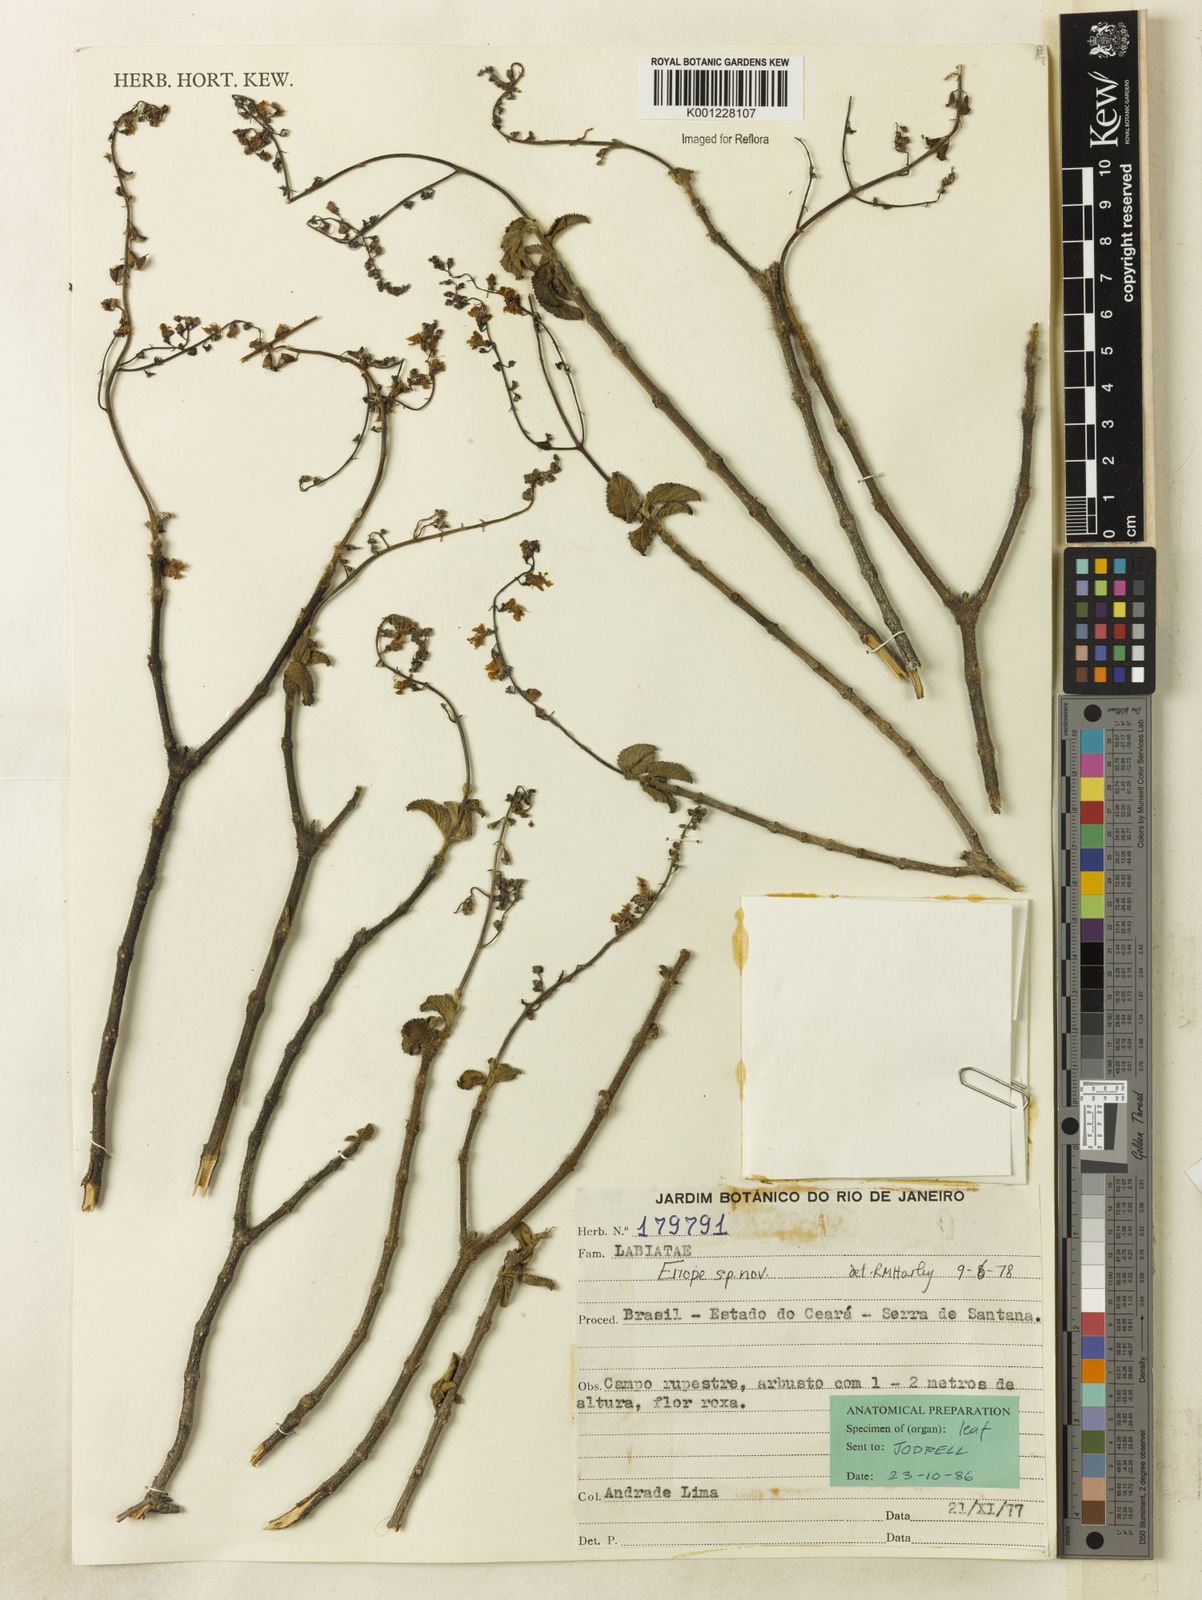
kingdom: Plantae
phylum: Tracheophyta
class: Magnoliopsida
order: Lamiales
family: Lamiaceae
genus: Eriope
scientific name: Eriope
